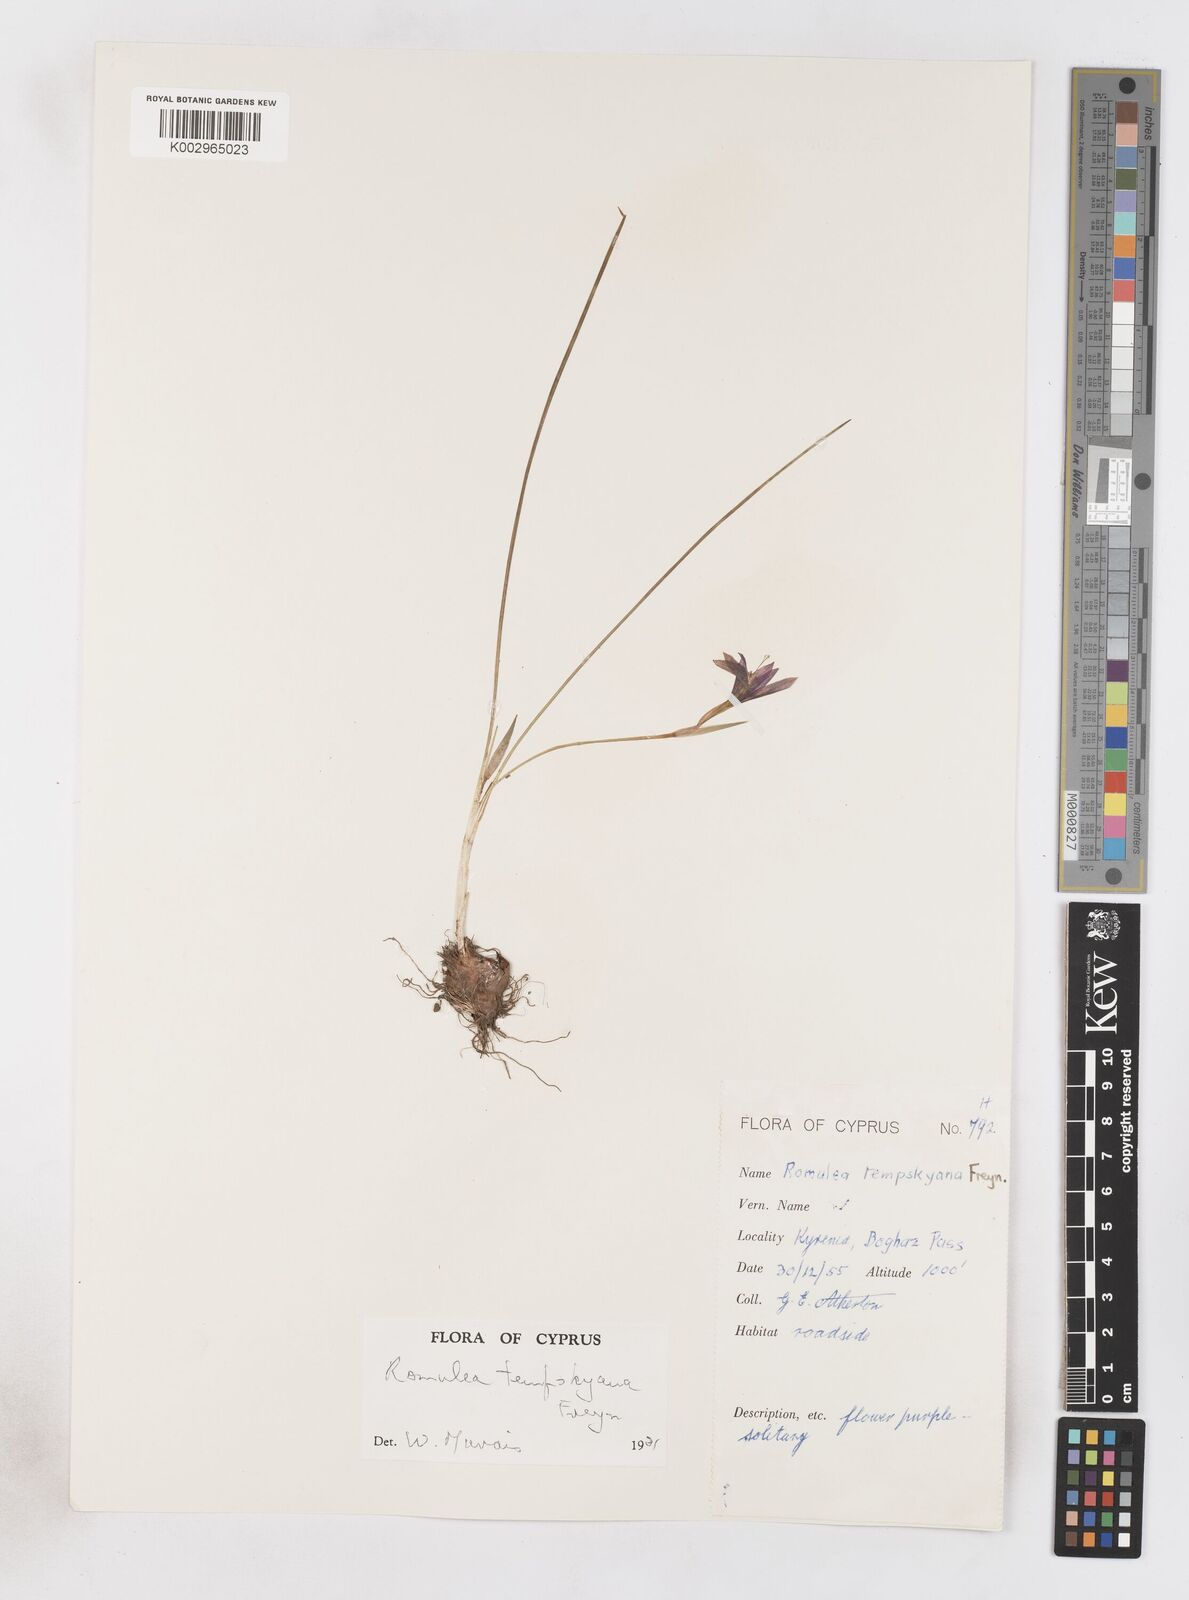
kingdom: Plantae
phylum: Tracheophyta
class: Liliopsida
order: Asparagales
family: Iridaceae
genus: Romulea
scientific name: Romulea tempskyana
